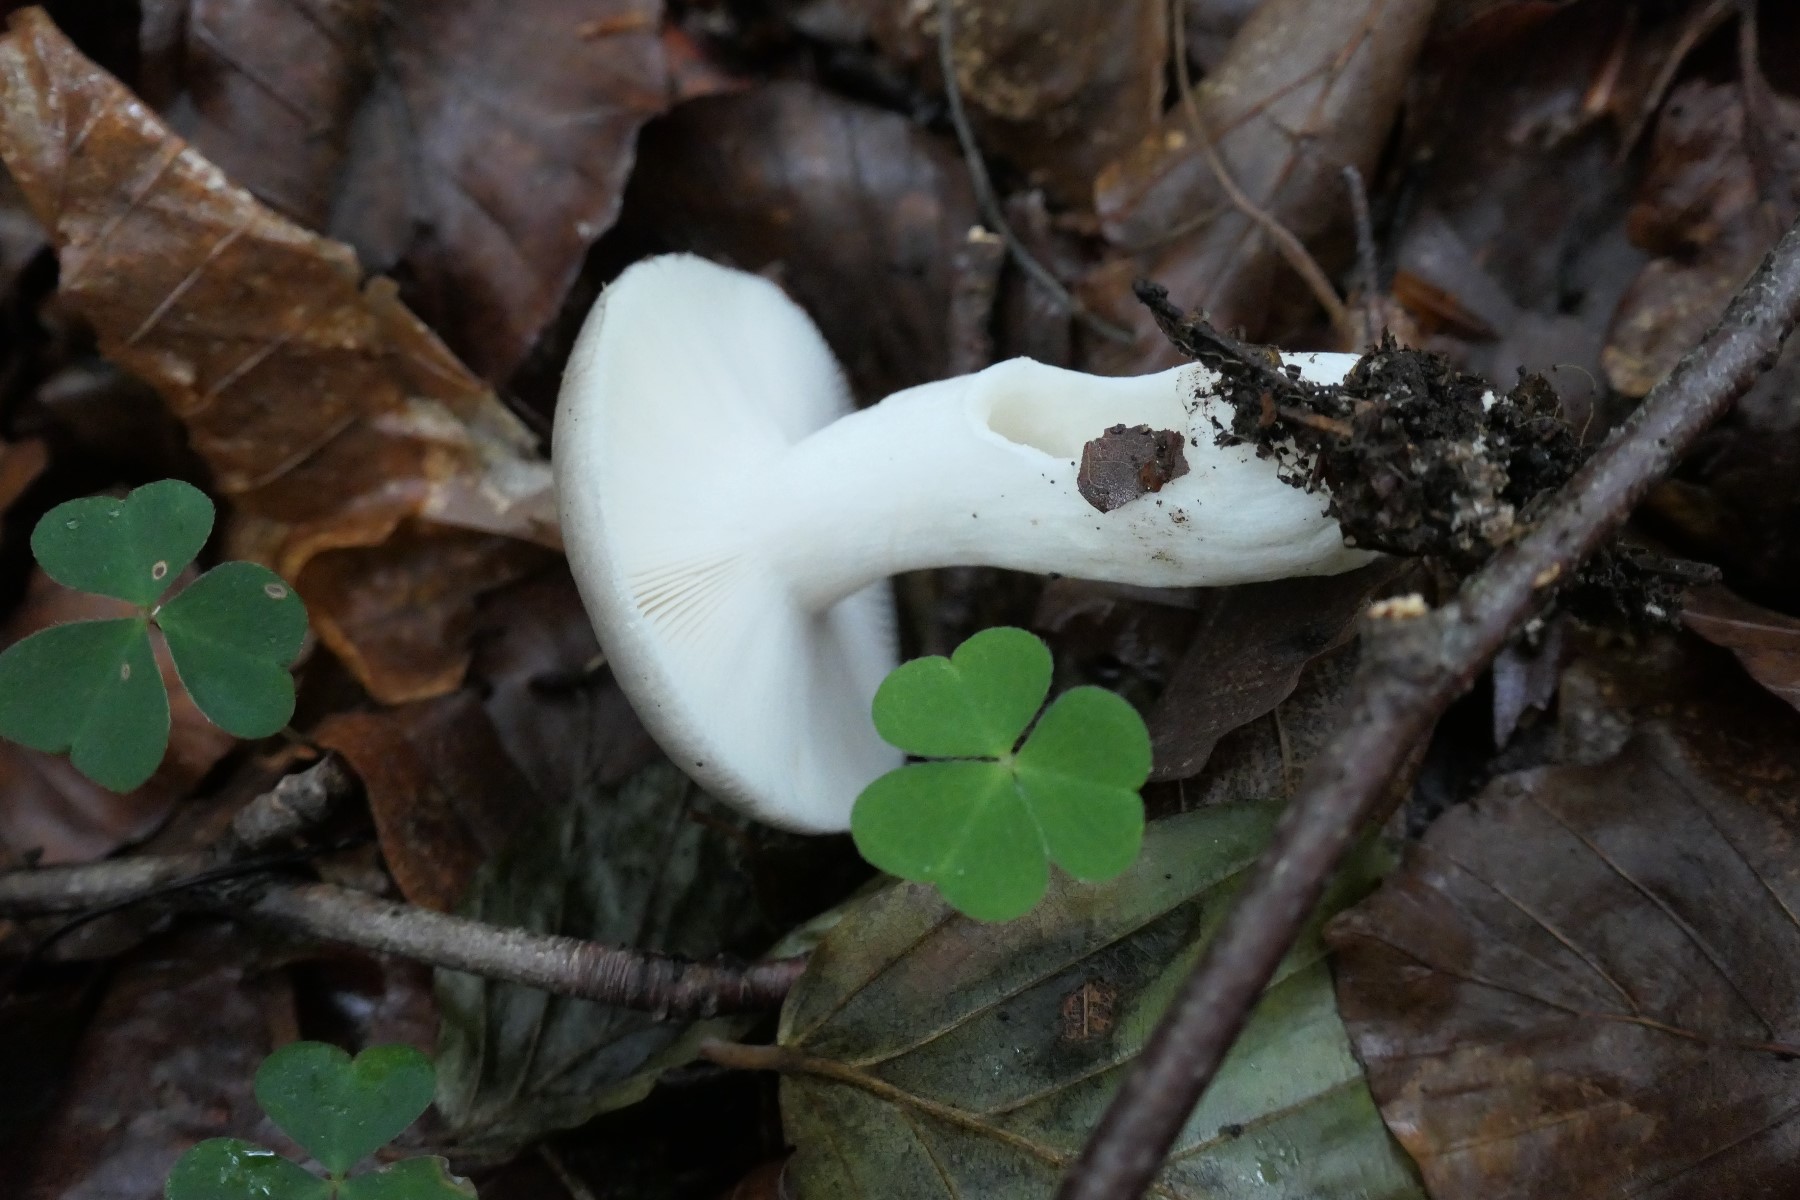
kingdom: Fungi
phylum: Basidiomycota
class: Agaricomycetes
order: Russulales
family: Russulaceae
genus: Russula
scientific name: Russula parazurea
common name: blågrå skørhat
